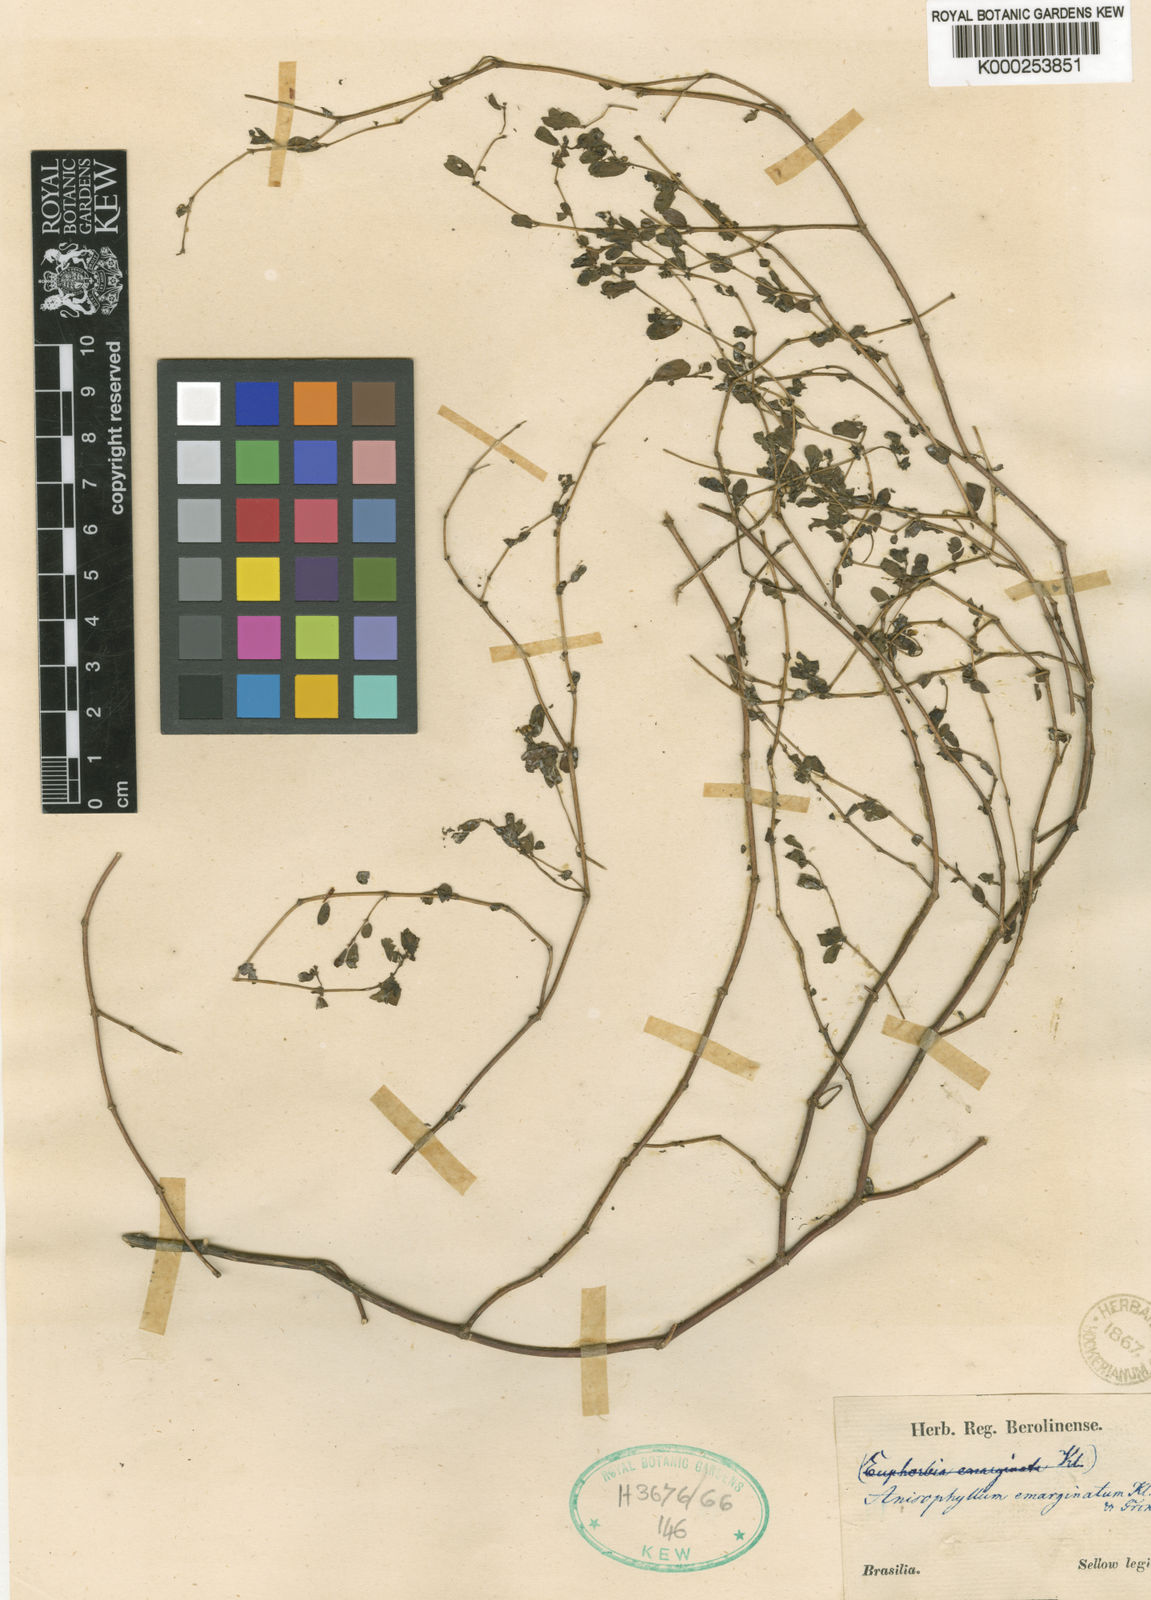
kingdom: Plantae
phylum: Tracheophyta
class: Magnoliopsida
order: Malpighiales
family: Euphorbiaceae
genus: Euphorbia
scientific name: Euphorbia serpens
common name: Matted sandmat
